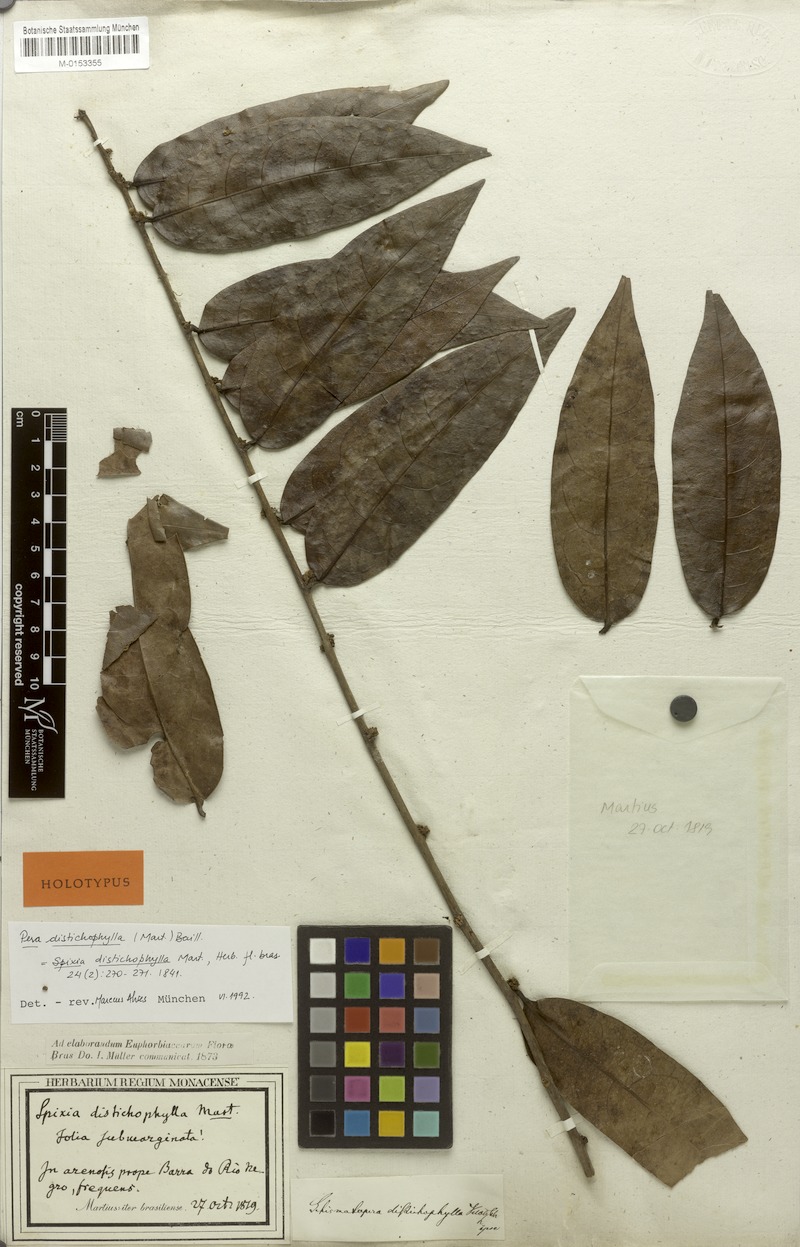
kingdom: Plantae
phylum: Tracheophyta
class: Magnoliopsida
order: Malpighiales
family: Peraceae
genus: Pera
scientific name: Pera distichophylla
